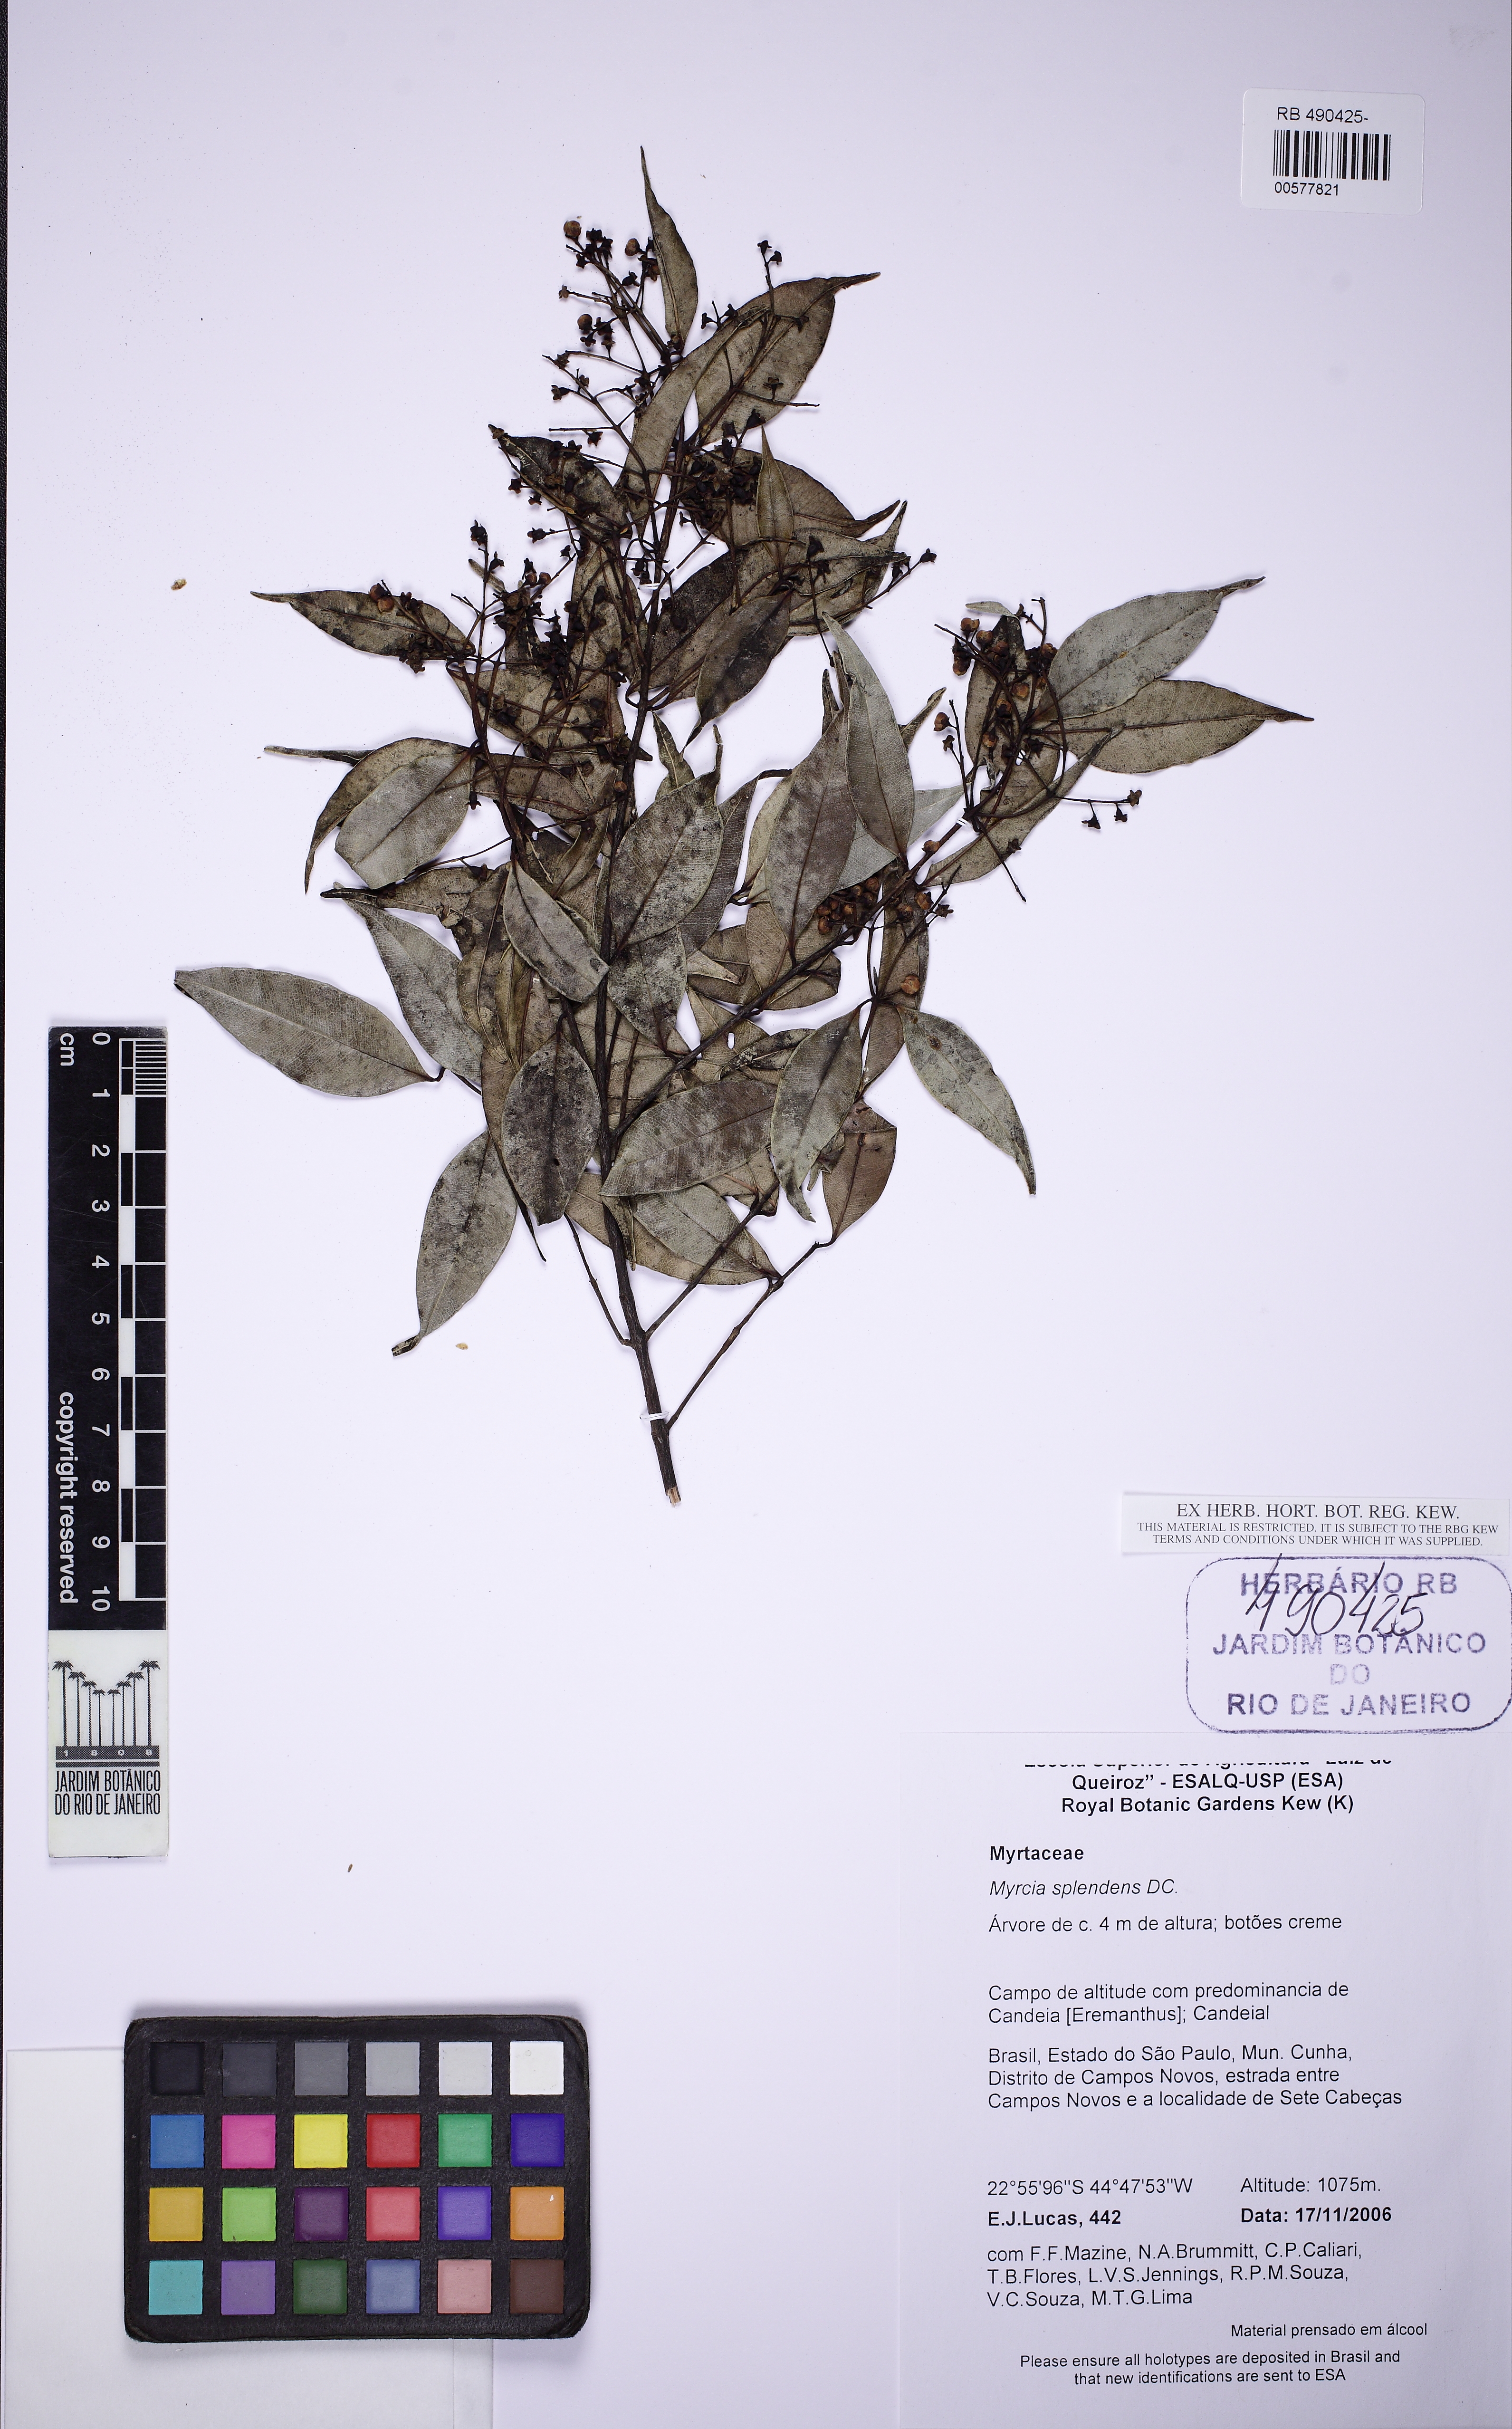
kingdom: Plantae
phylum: Tracheophyta
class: Magnoliopsida
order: Myrtales
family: Myrtaceae
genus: Myrcia
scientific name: Myrcia splendens
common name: Surinam cherry
